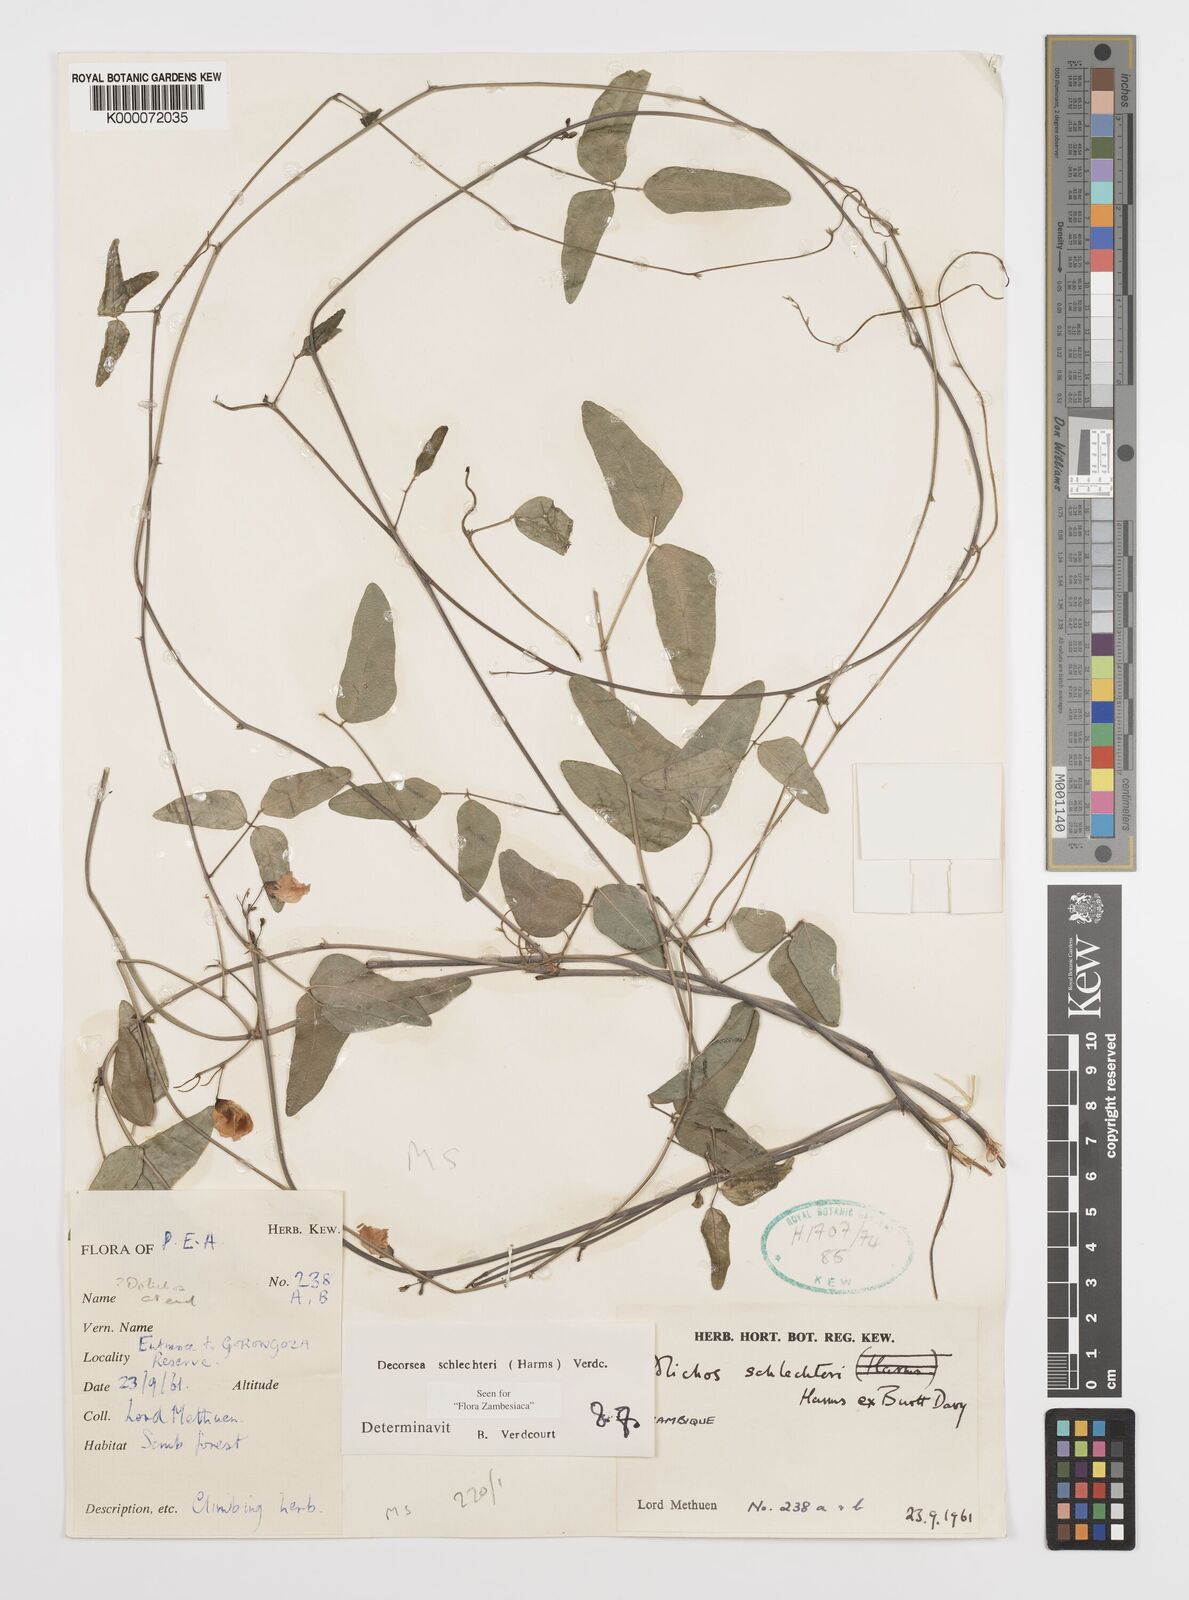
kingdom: Plantae
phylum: Tracheophyta
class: Magnoliopsida
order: Fabales
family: Fabaceae
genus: Decorsea
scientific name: Decorsea schlechteri
